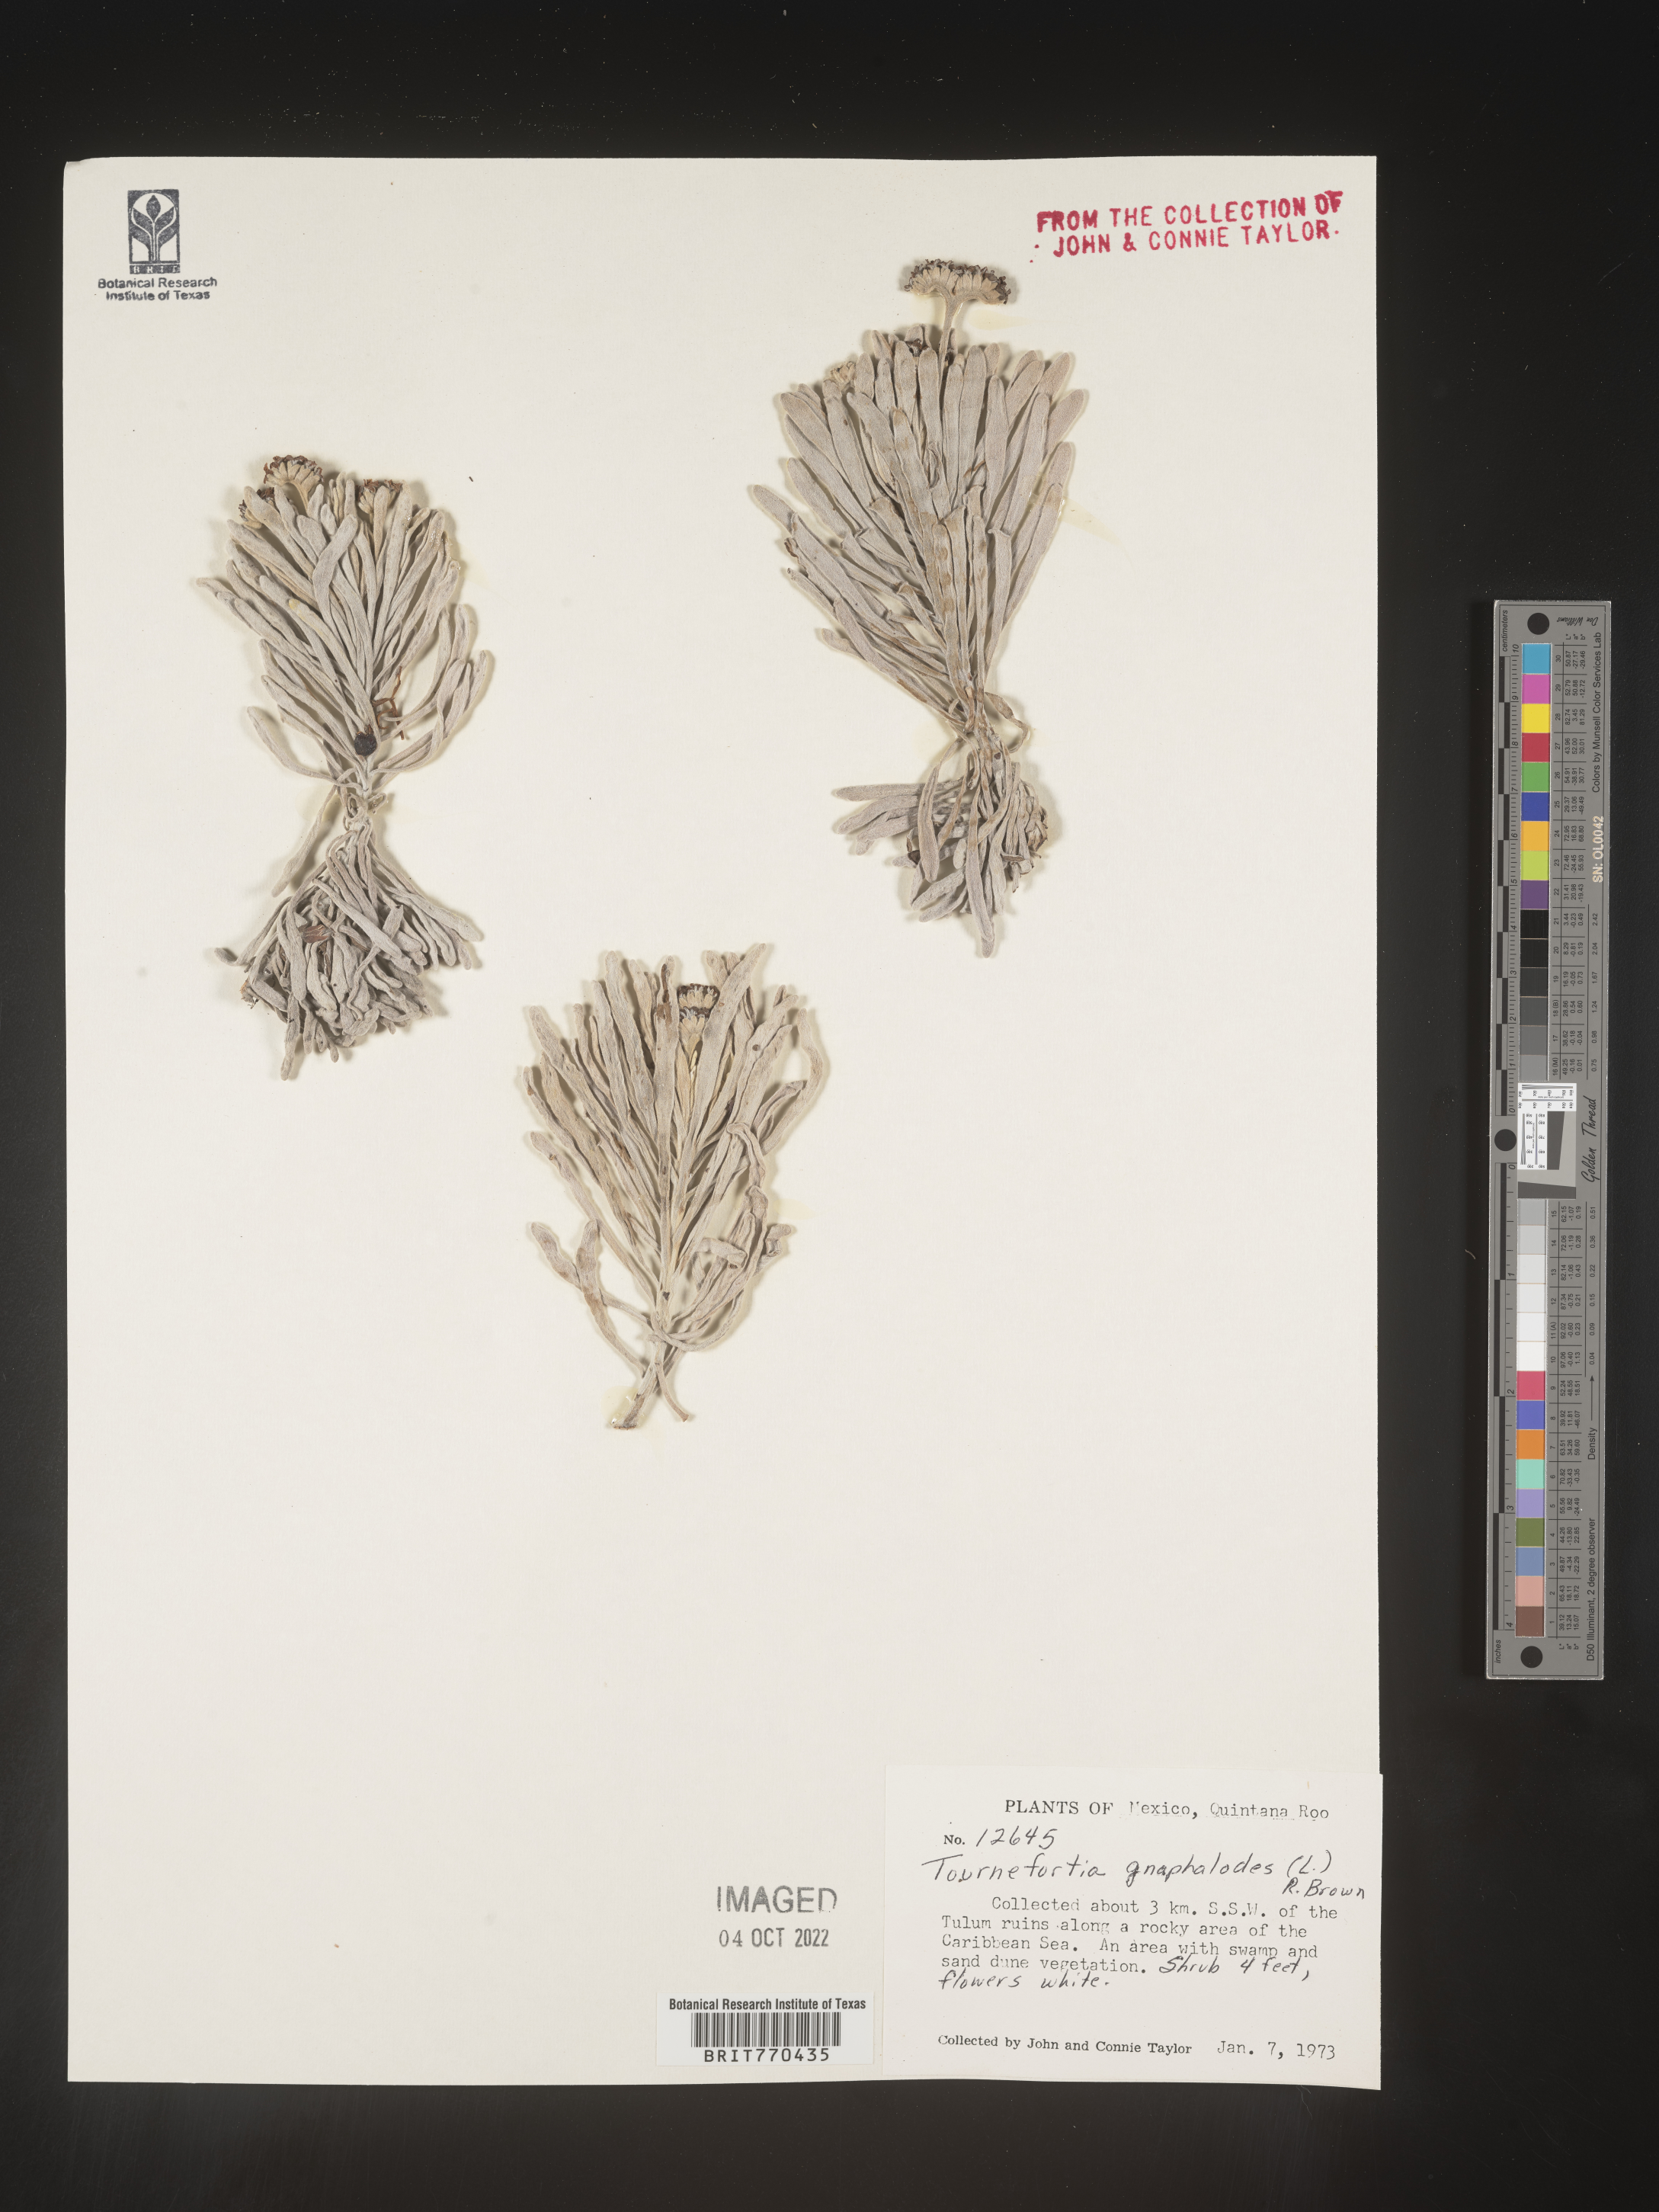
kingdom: Plantae
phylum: Tracheophyta
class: Magnoliopsida
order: Boraginales
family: Heliotropiaceae
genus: Tournefortia
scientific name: Tournefortia
